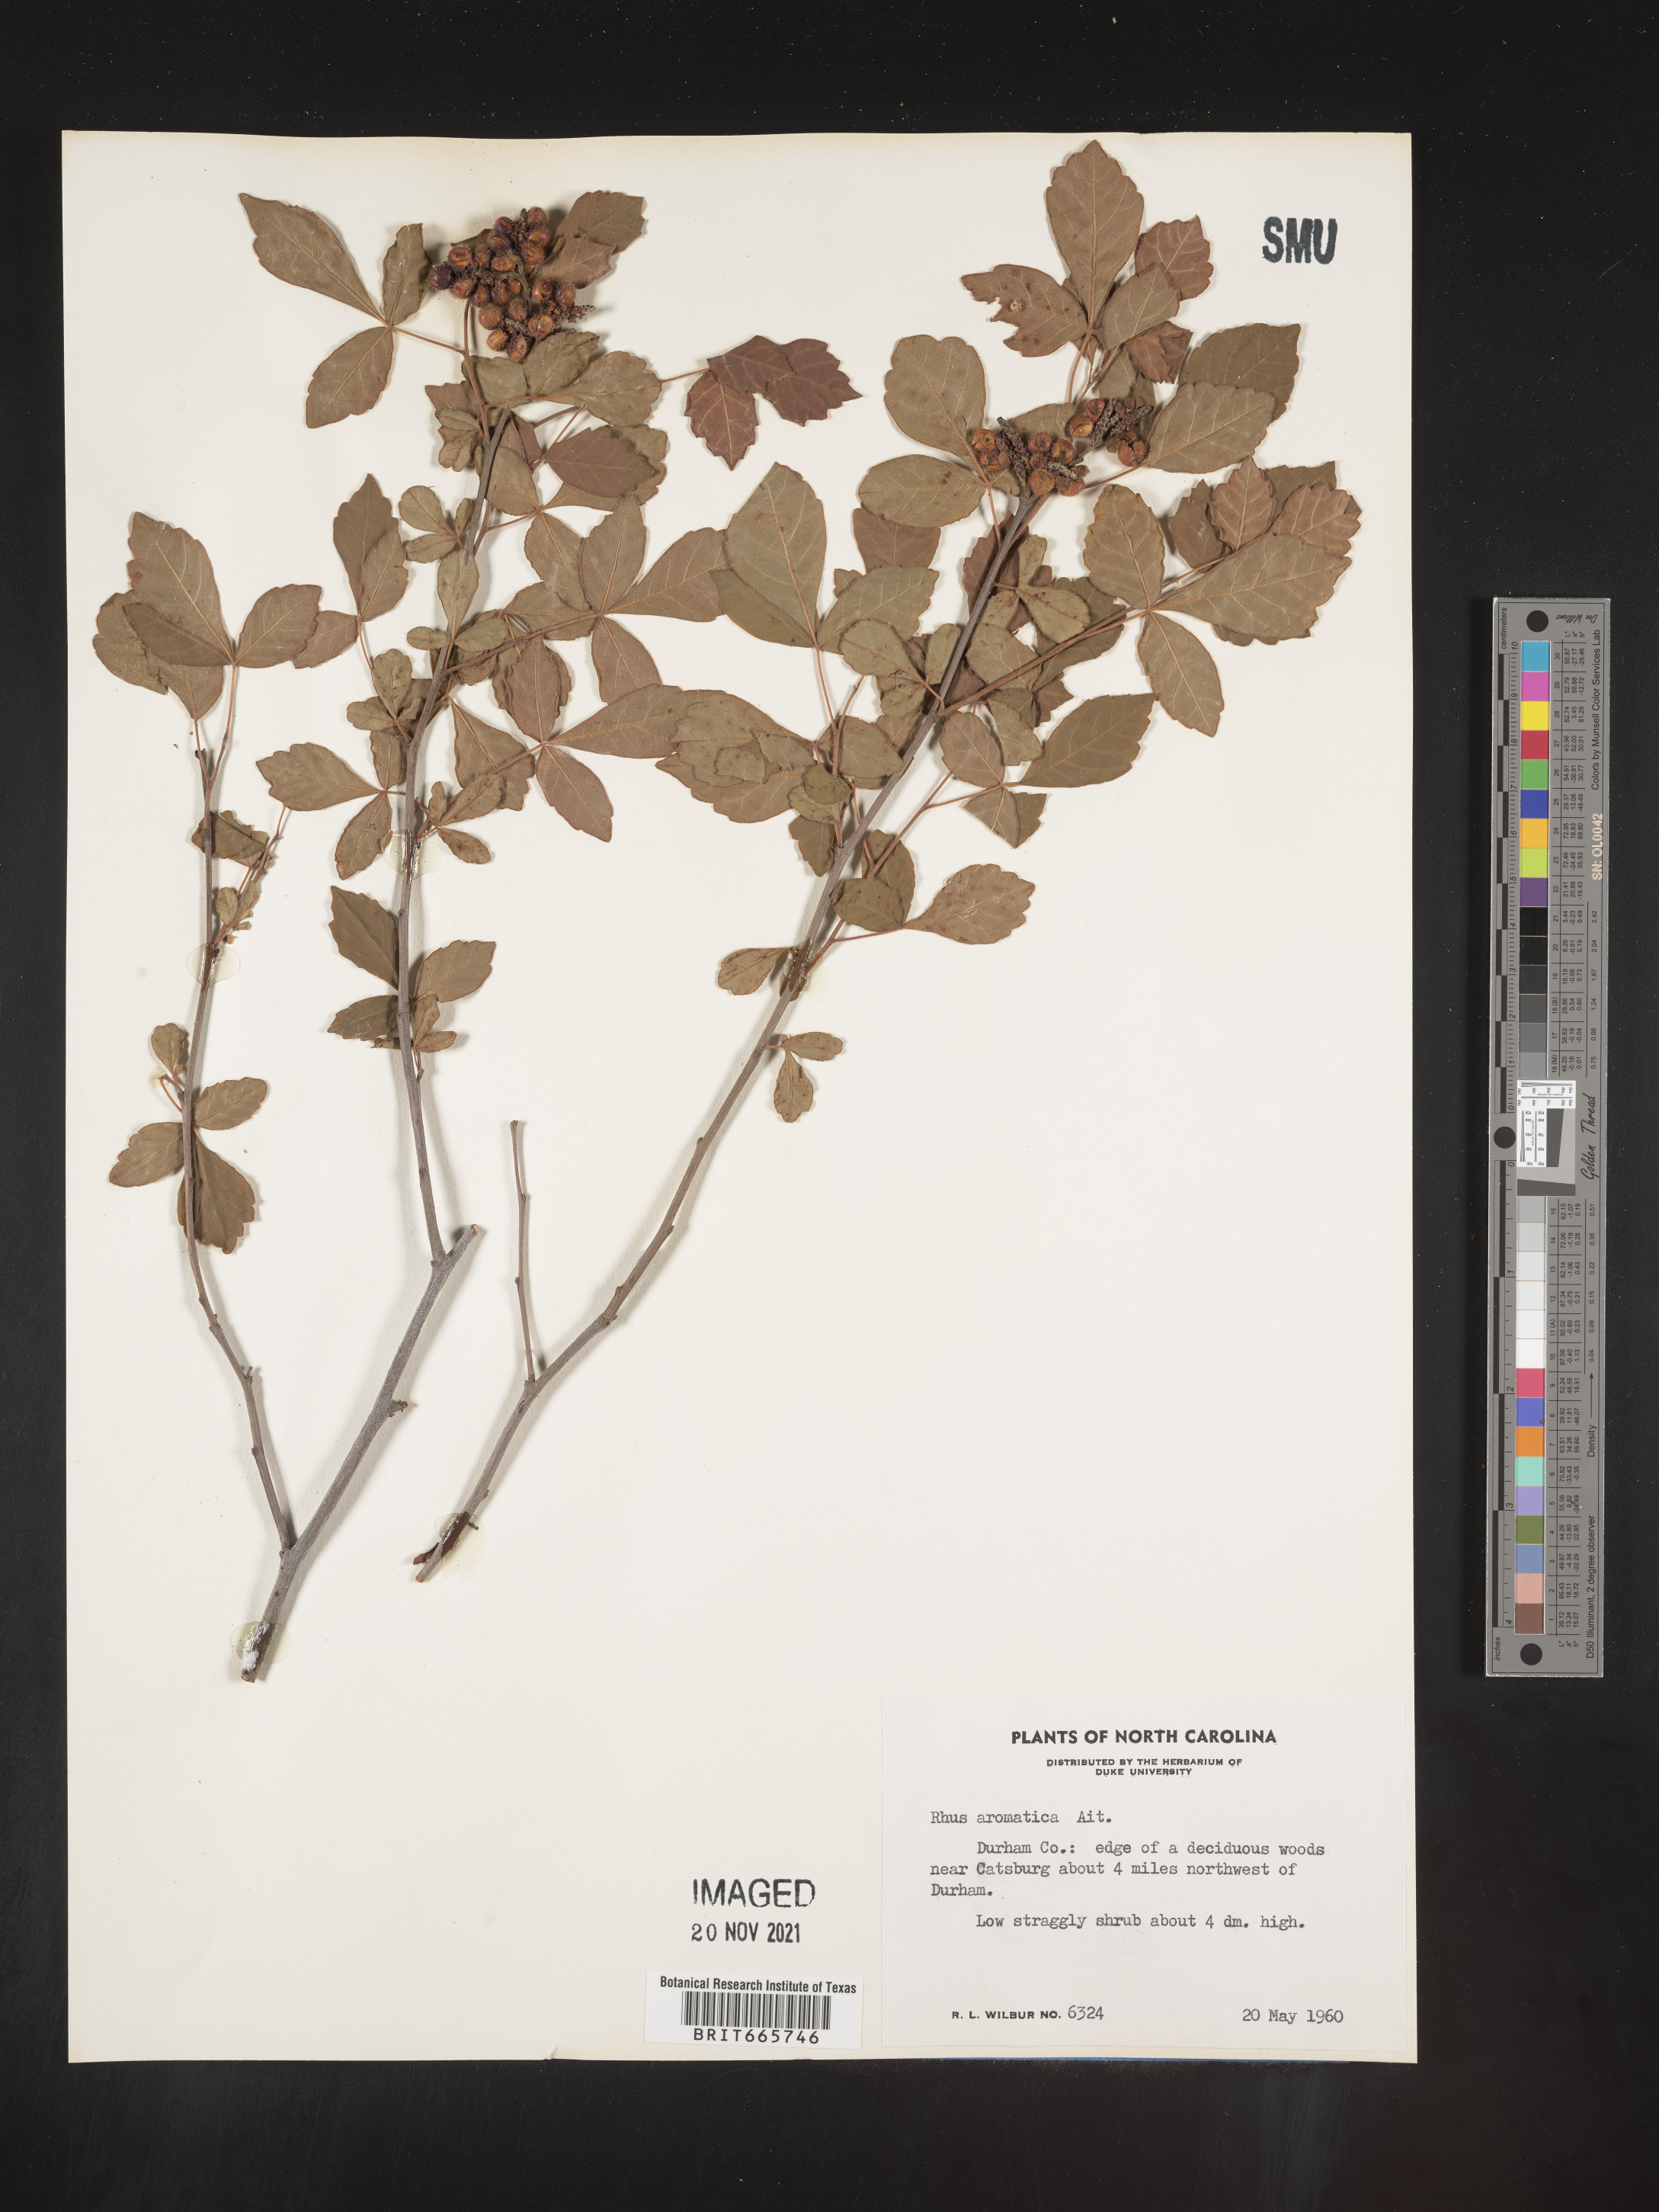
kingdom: Plantae
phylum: Tracheophyta
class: Magnoliopsida
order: Sapindales
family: Anacardiaceae
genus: Rhus
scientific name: Rhus aromatica
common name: Aromatic sumac
